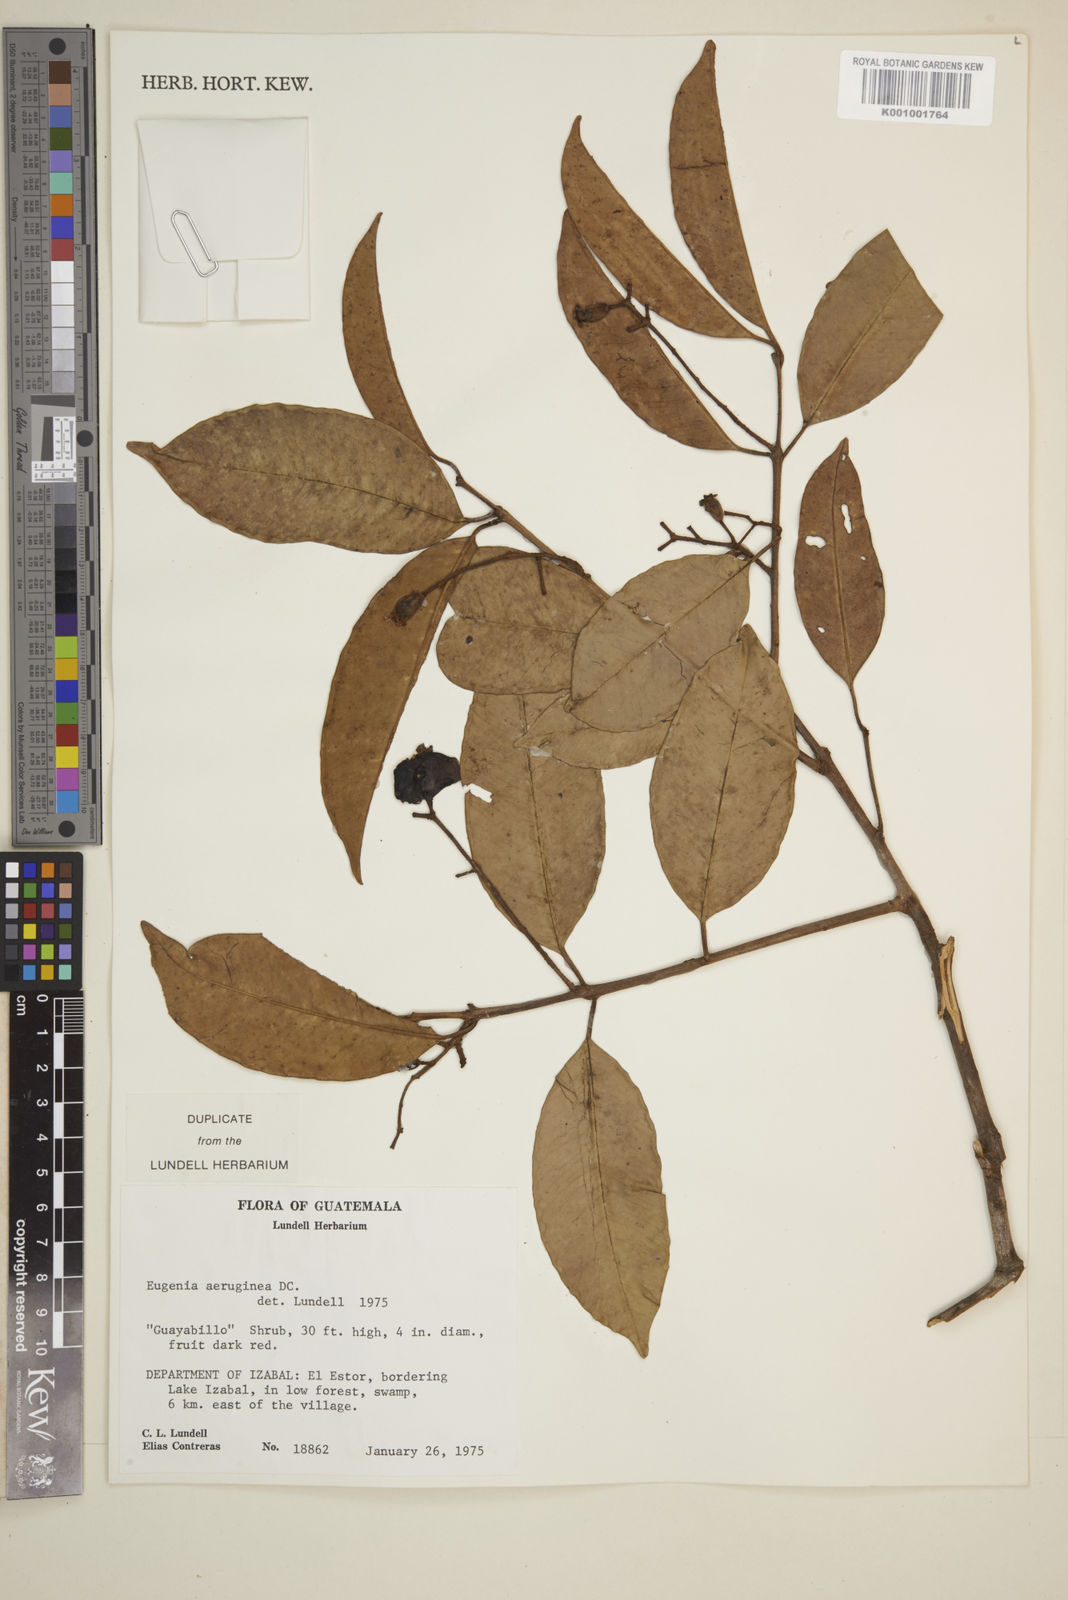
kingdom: Plantae
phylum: Tracheophyta
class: Magnoliopsida
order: Myrtales
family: Myrtaceae
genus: Eugenia
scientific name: Eugenia aeruginea
